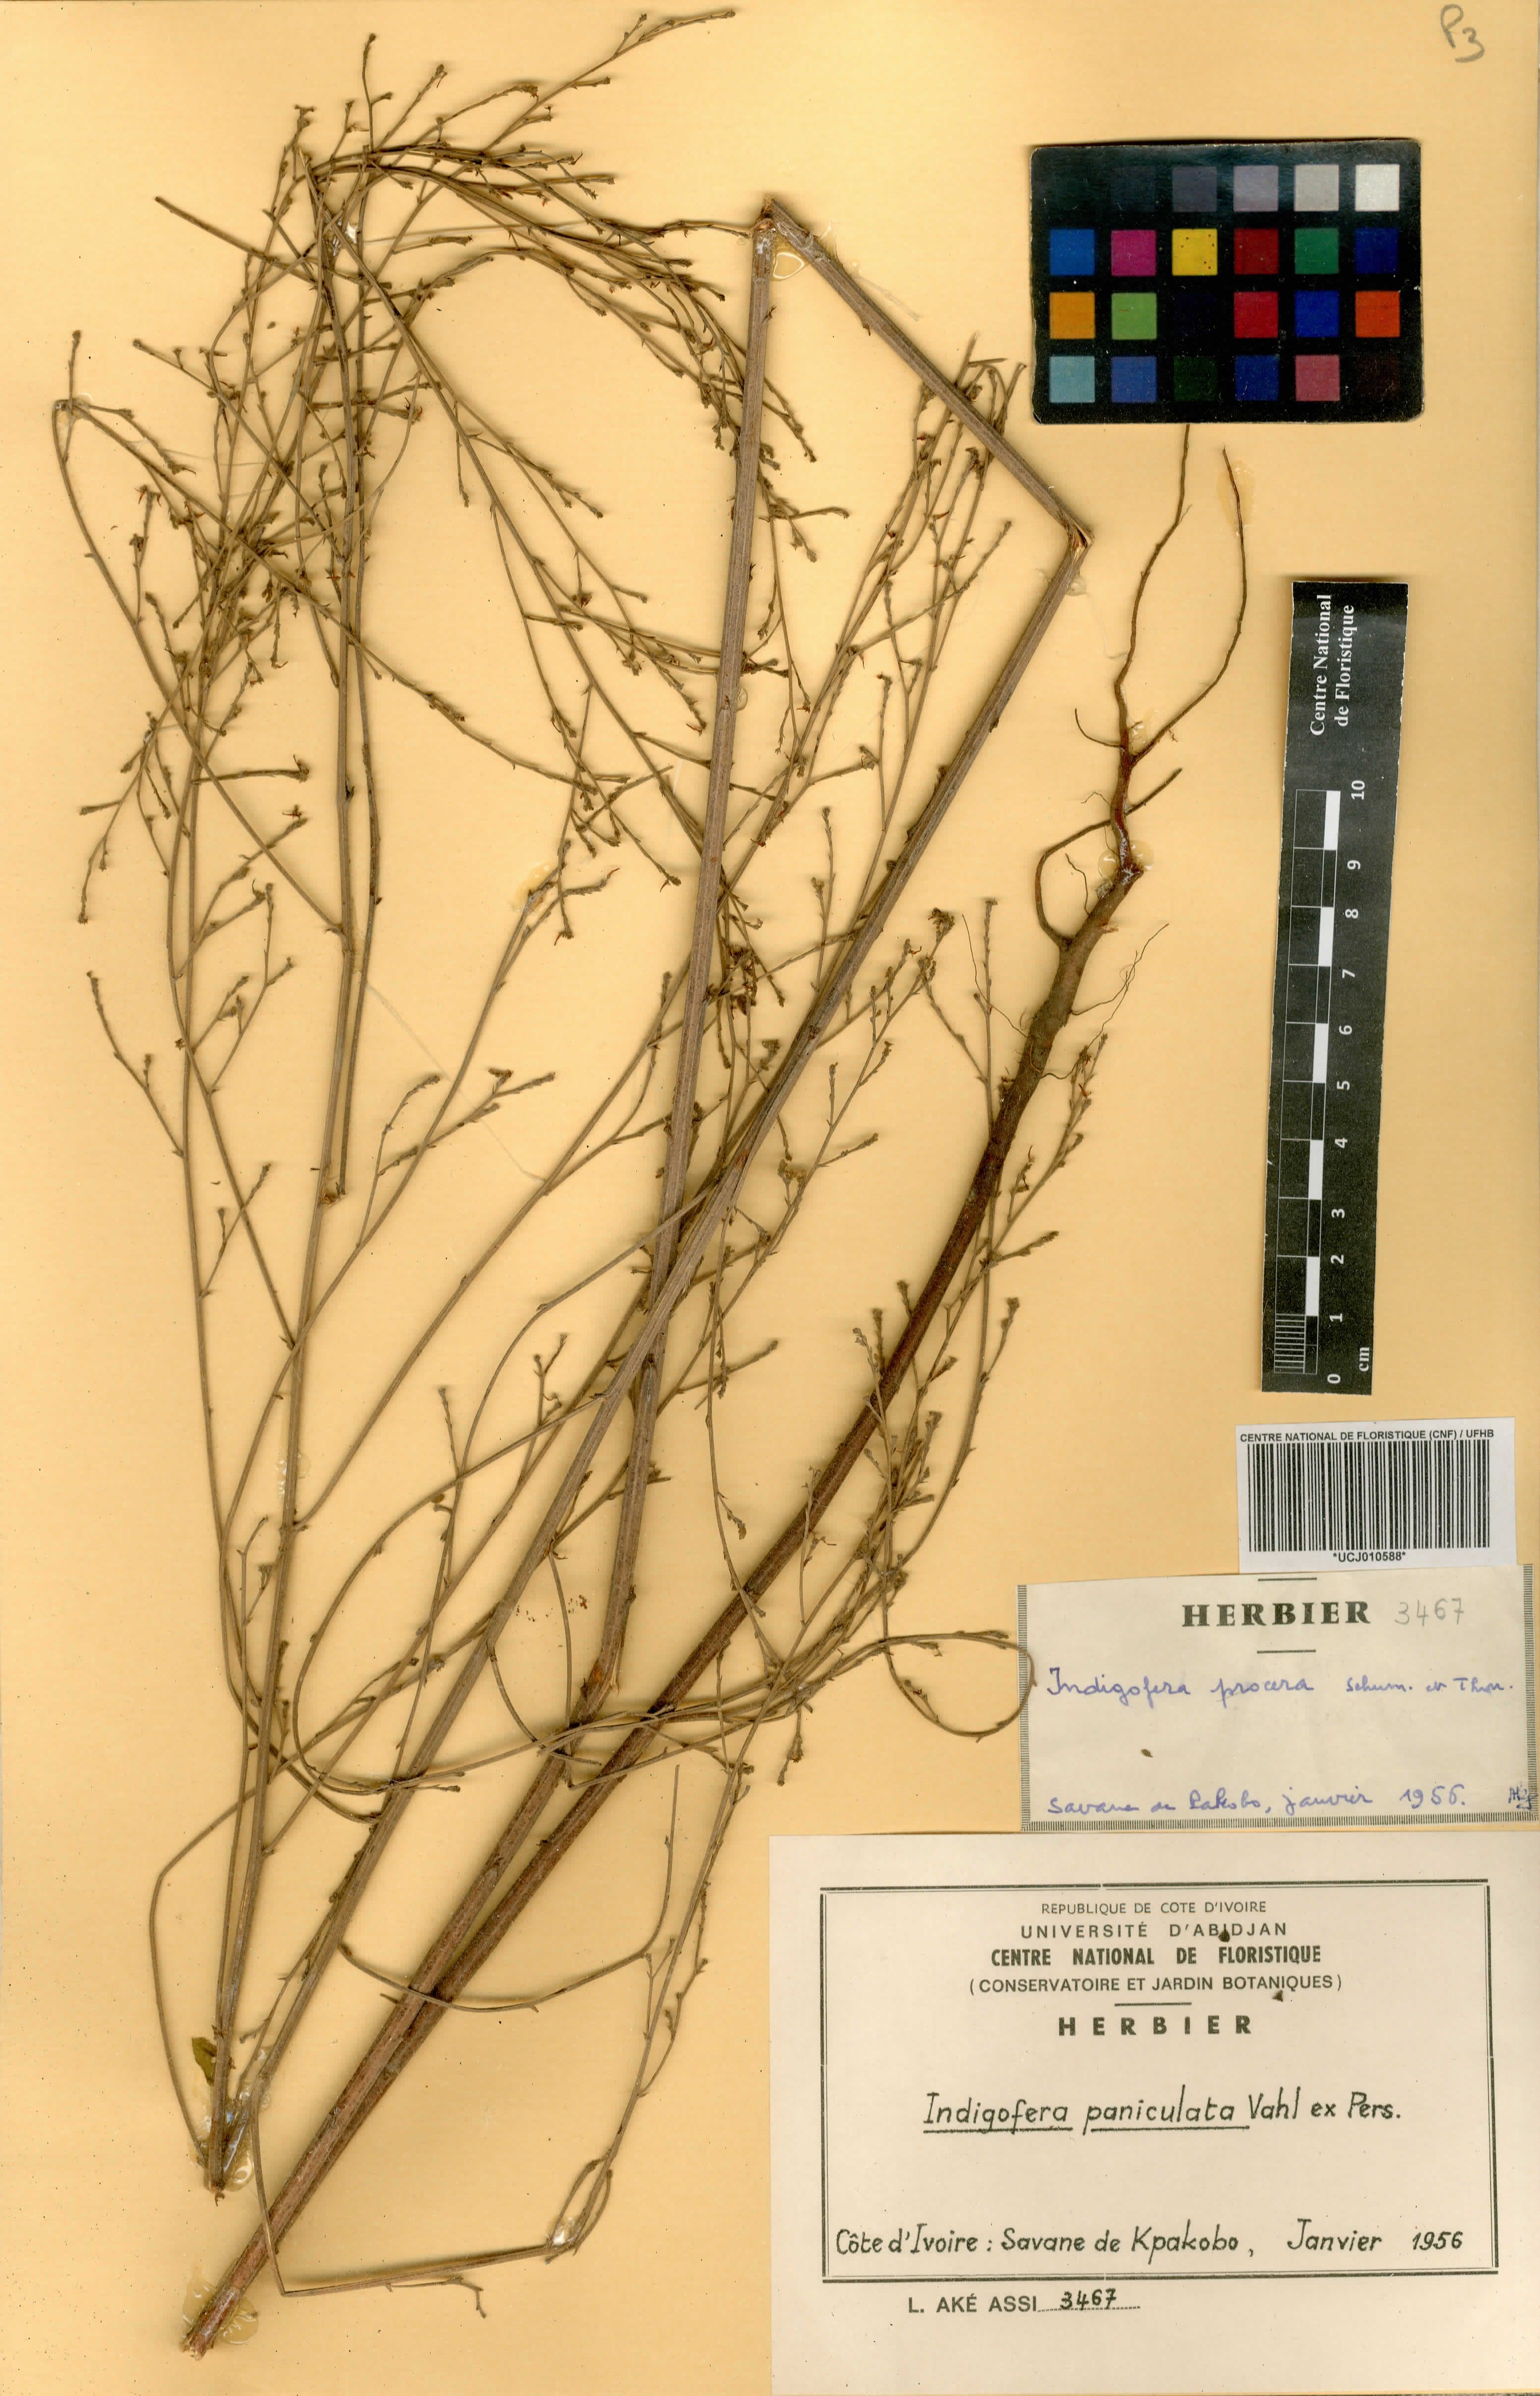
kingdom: Plantae
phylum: Tracheophyta
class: Magnoliopsida
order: Fabales
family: Fabaceae
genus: Indigofera
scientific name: Indigofera paniculata
